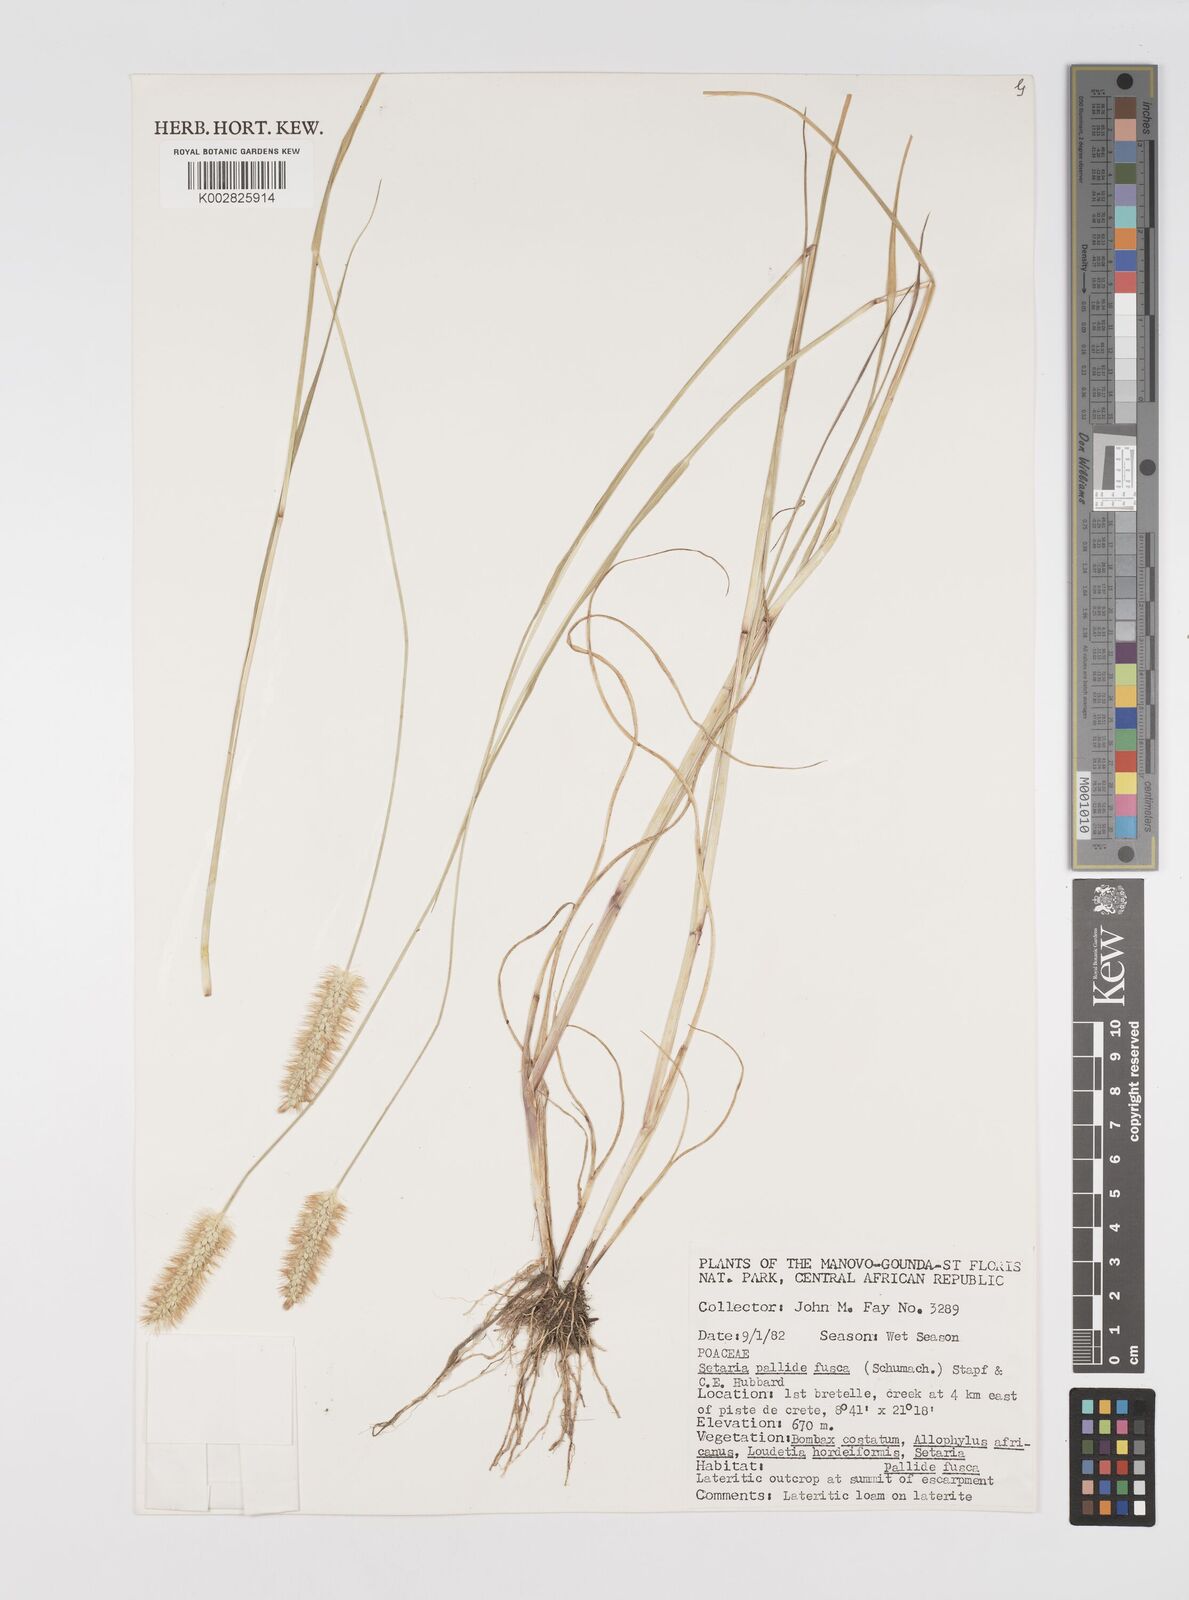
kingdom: Plantae
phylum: Tracheophyta
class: Liliopsida
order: Poales
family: Poaceae
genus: Setaria
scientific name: Setaria pumila
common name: Yellow bristle-grass
